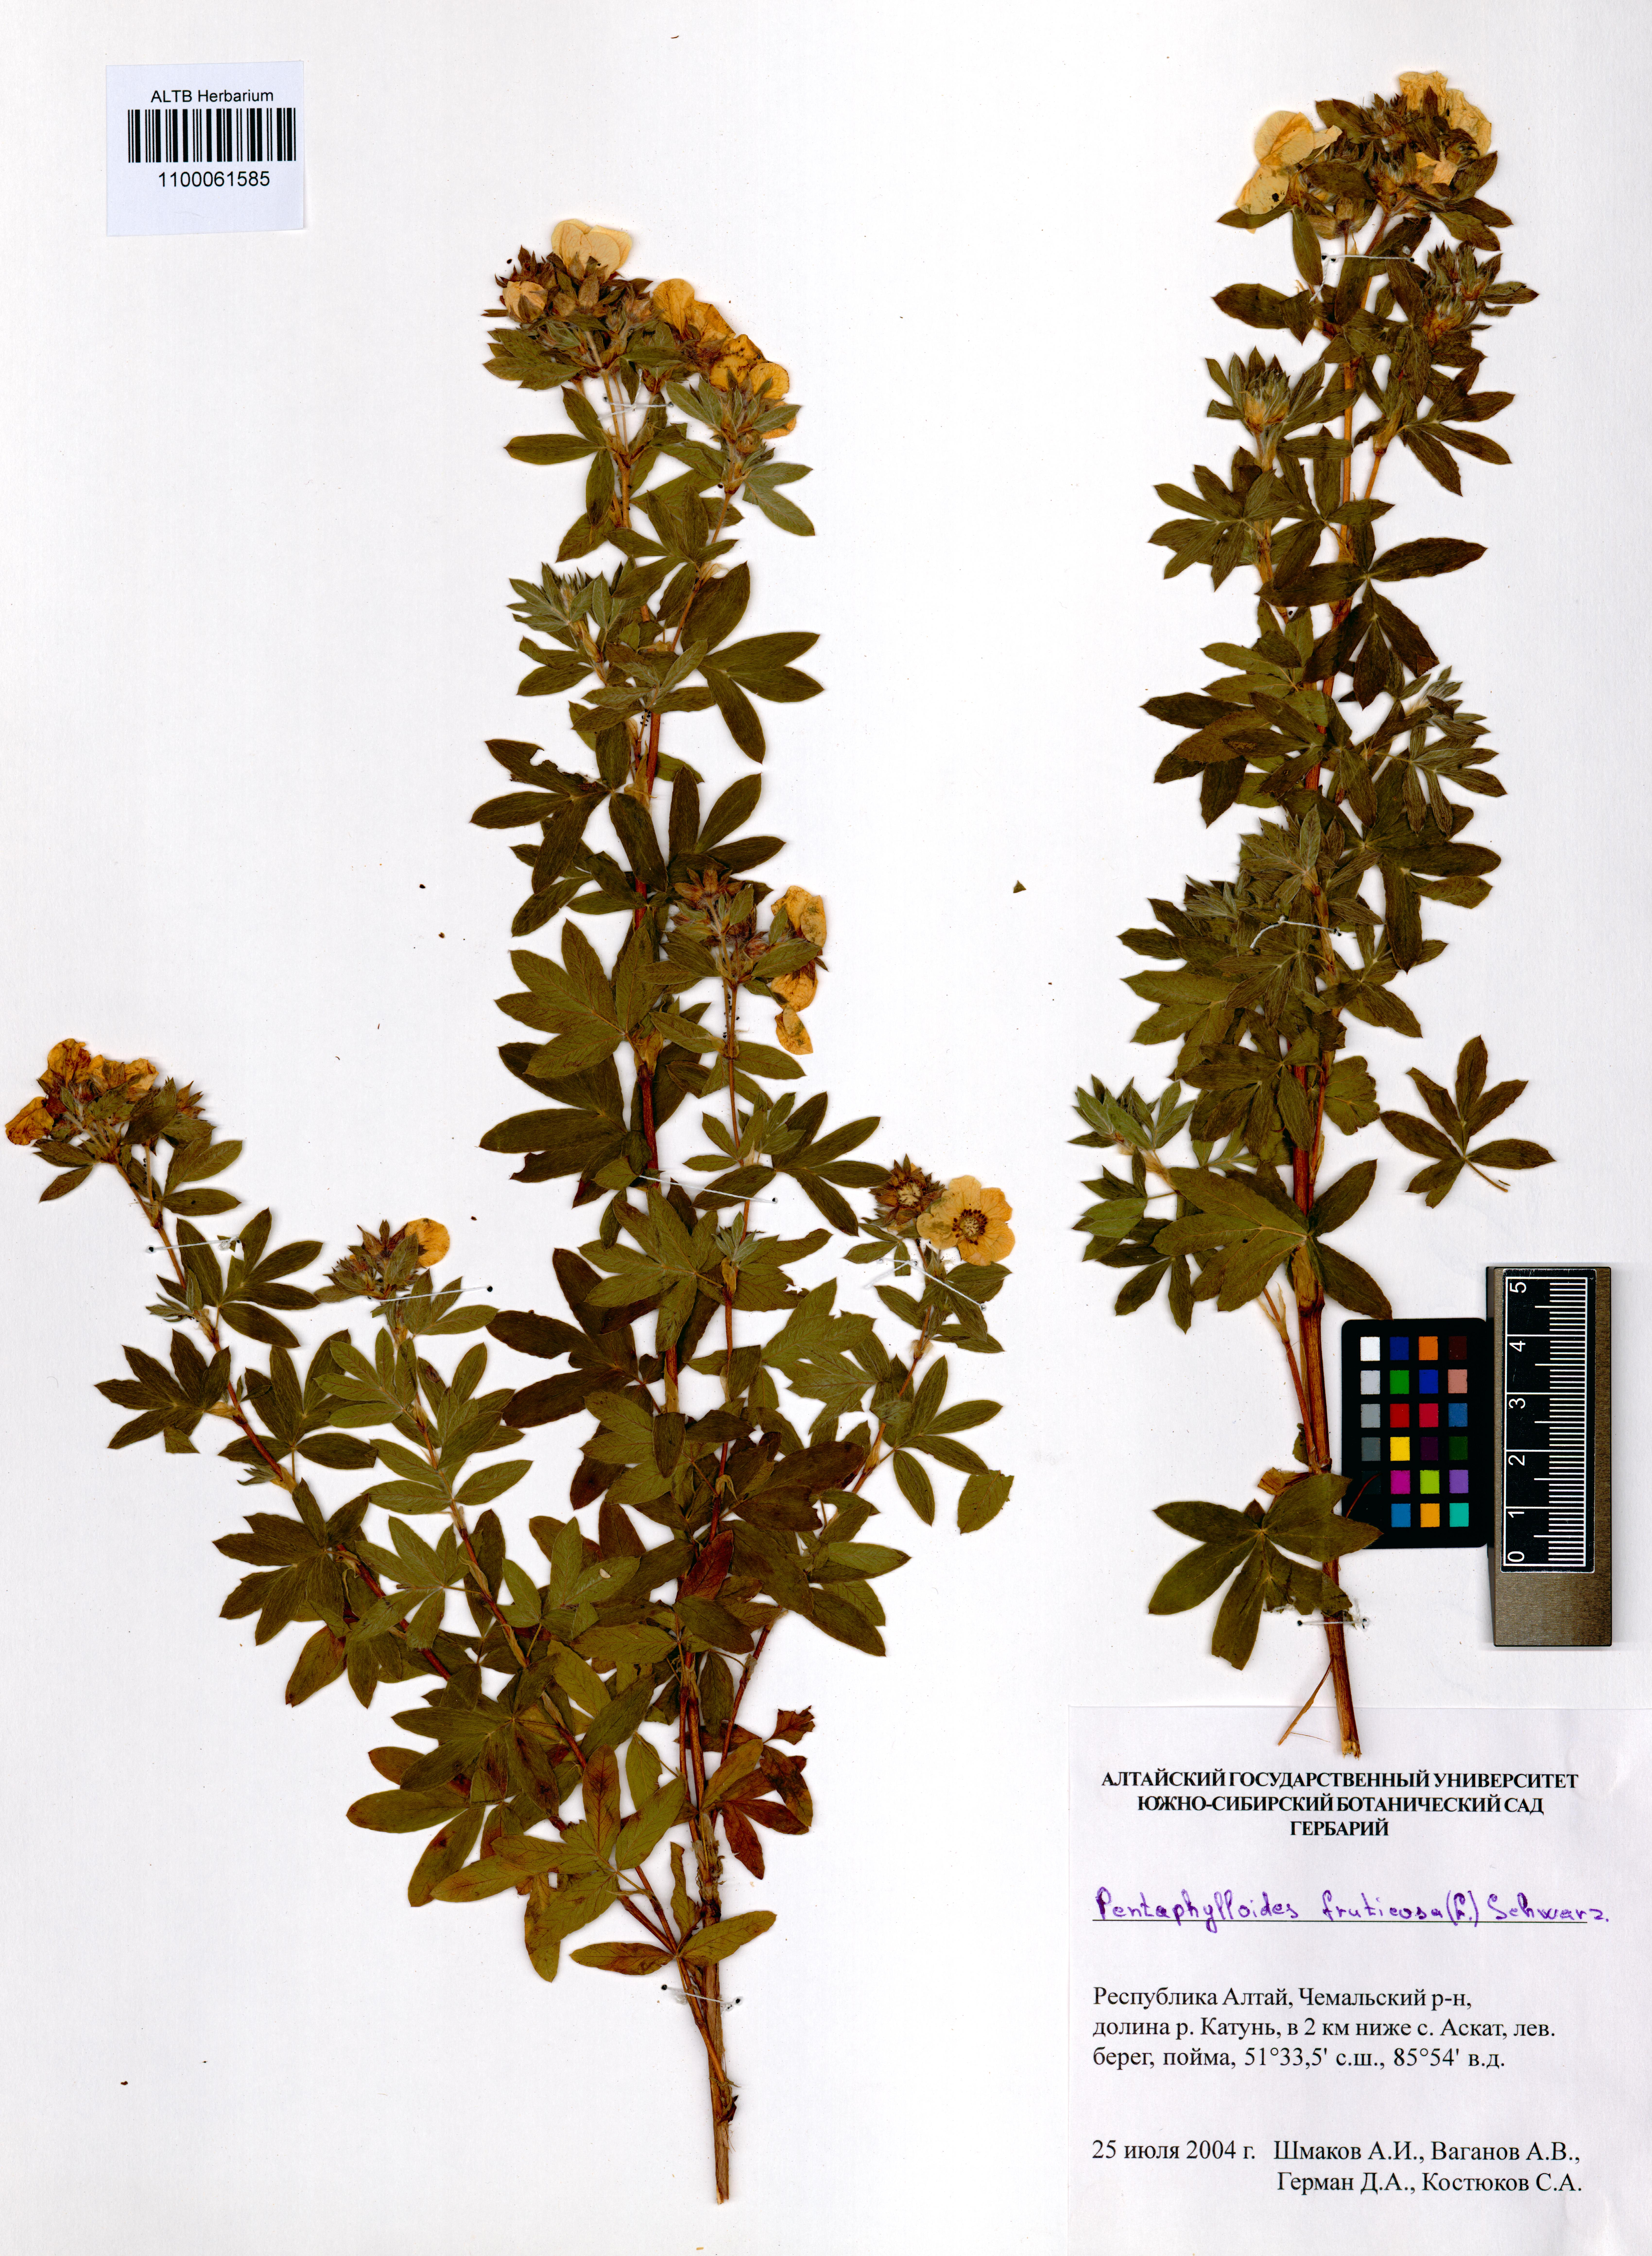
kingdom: Plantae
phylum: Tracheophyta
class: Magnoliopsida
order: Rosales
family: Rosaceae
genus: Dasiphora
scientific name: Dasiphora fruticosa
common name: Shrubby cinquefoil
